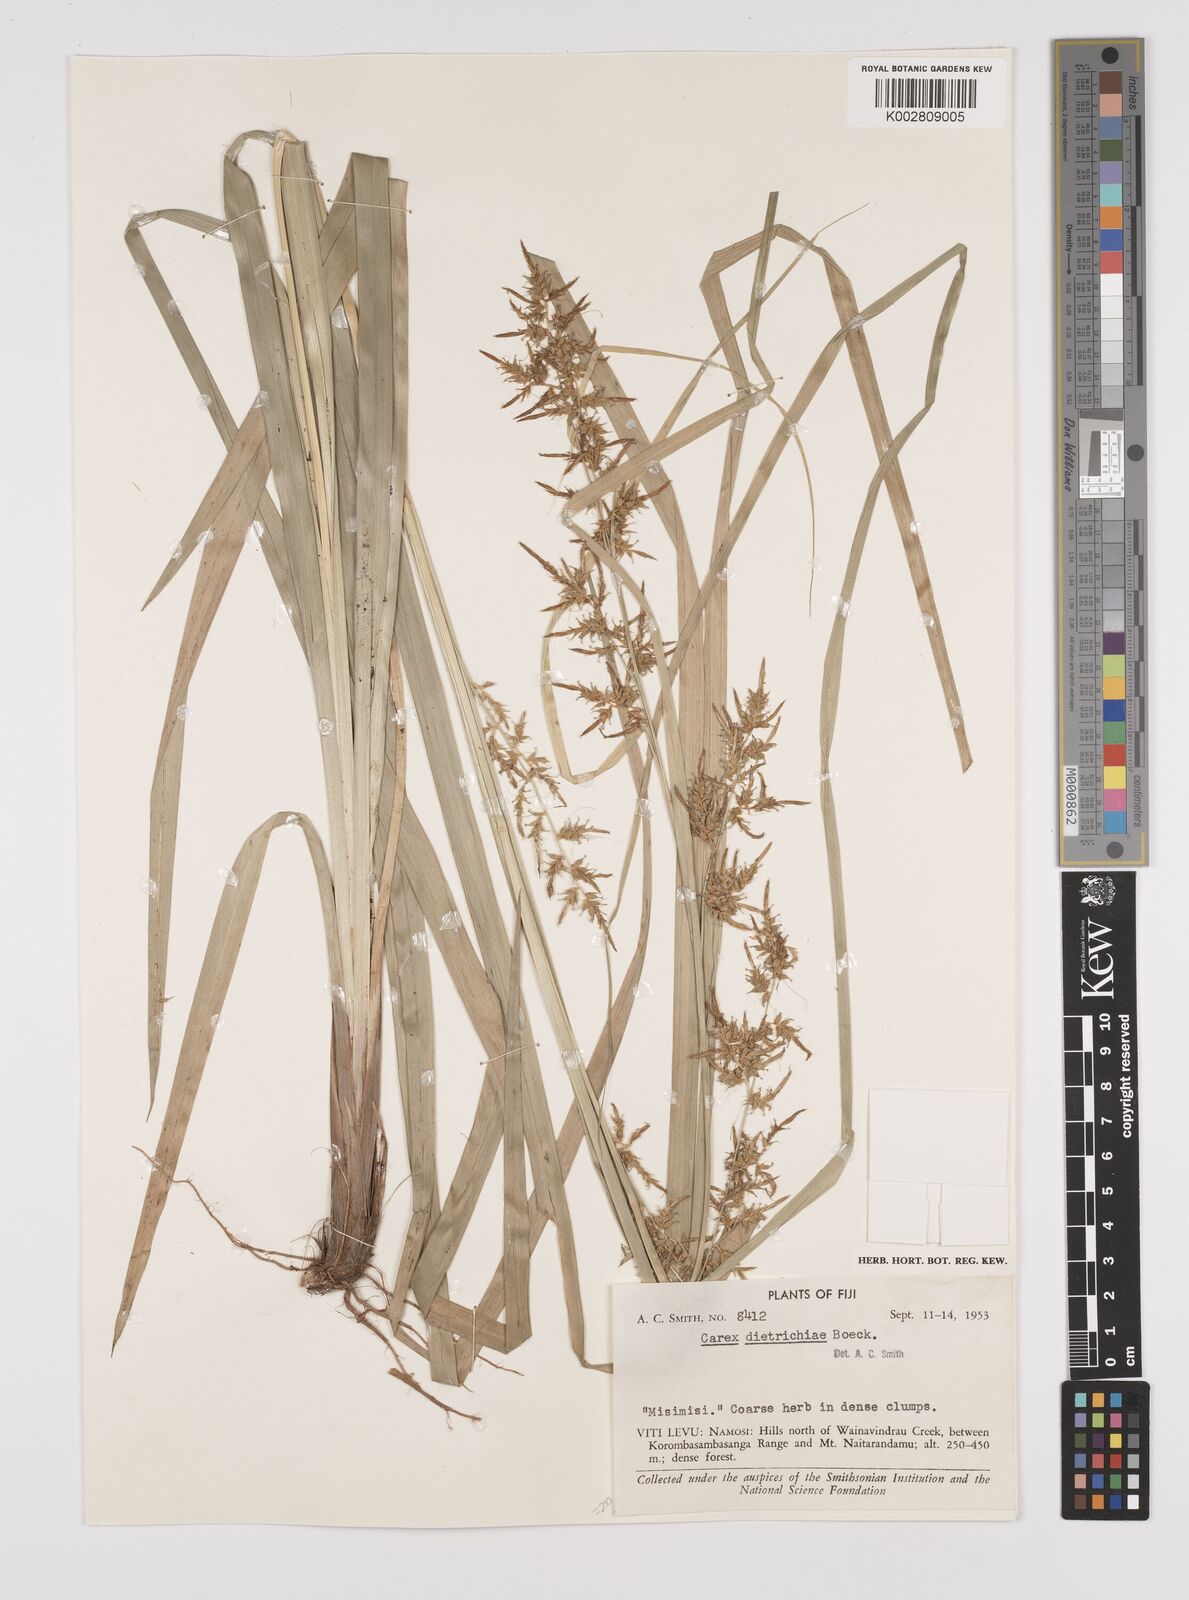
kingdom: Plantae
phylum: Tracheophyta
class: Liliopsida
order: Poales
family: Cyperaceae
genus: Carex
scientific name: Carex indica
